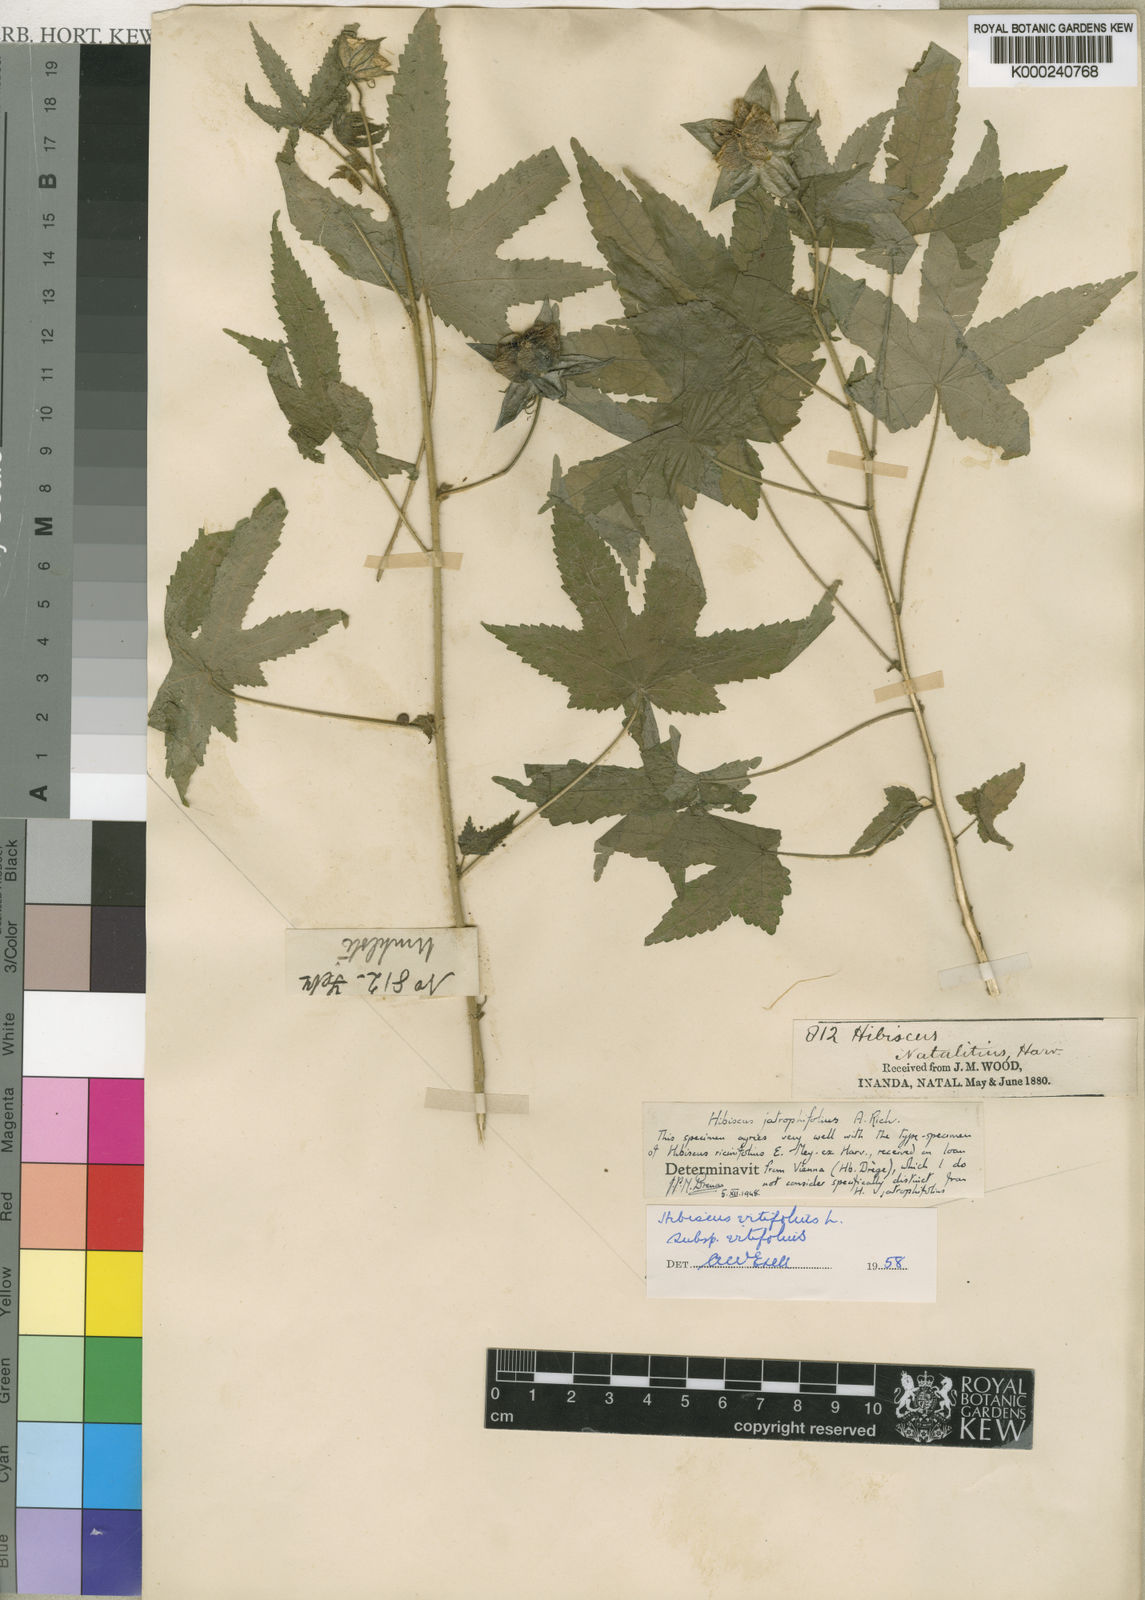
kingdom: Plantae
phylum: Tracheophyta
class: Magnoliopsida
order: Malvales
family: Malvaceae
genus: Hibiscus
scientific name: Hibiscus vitifolius
